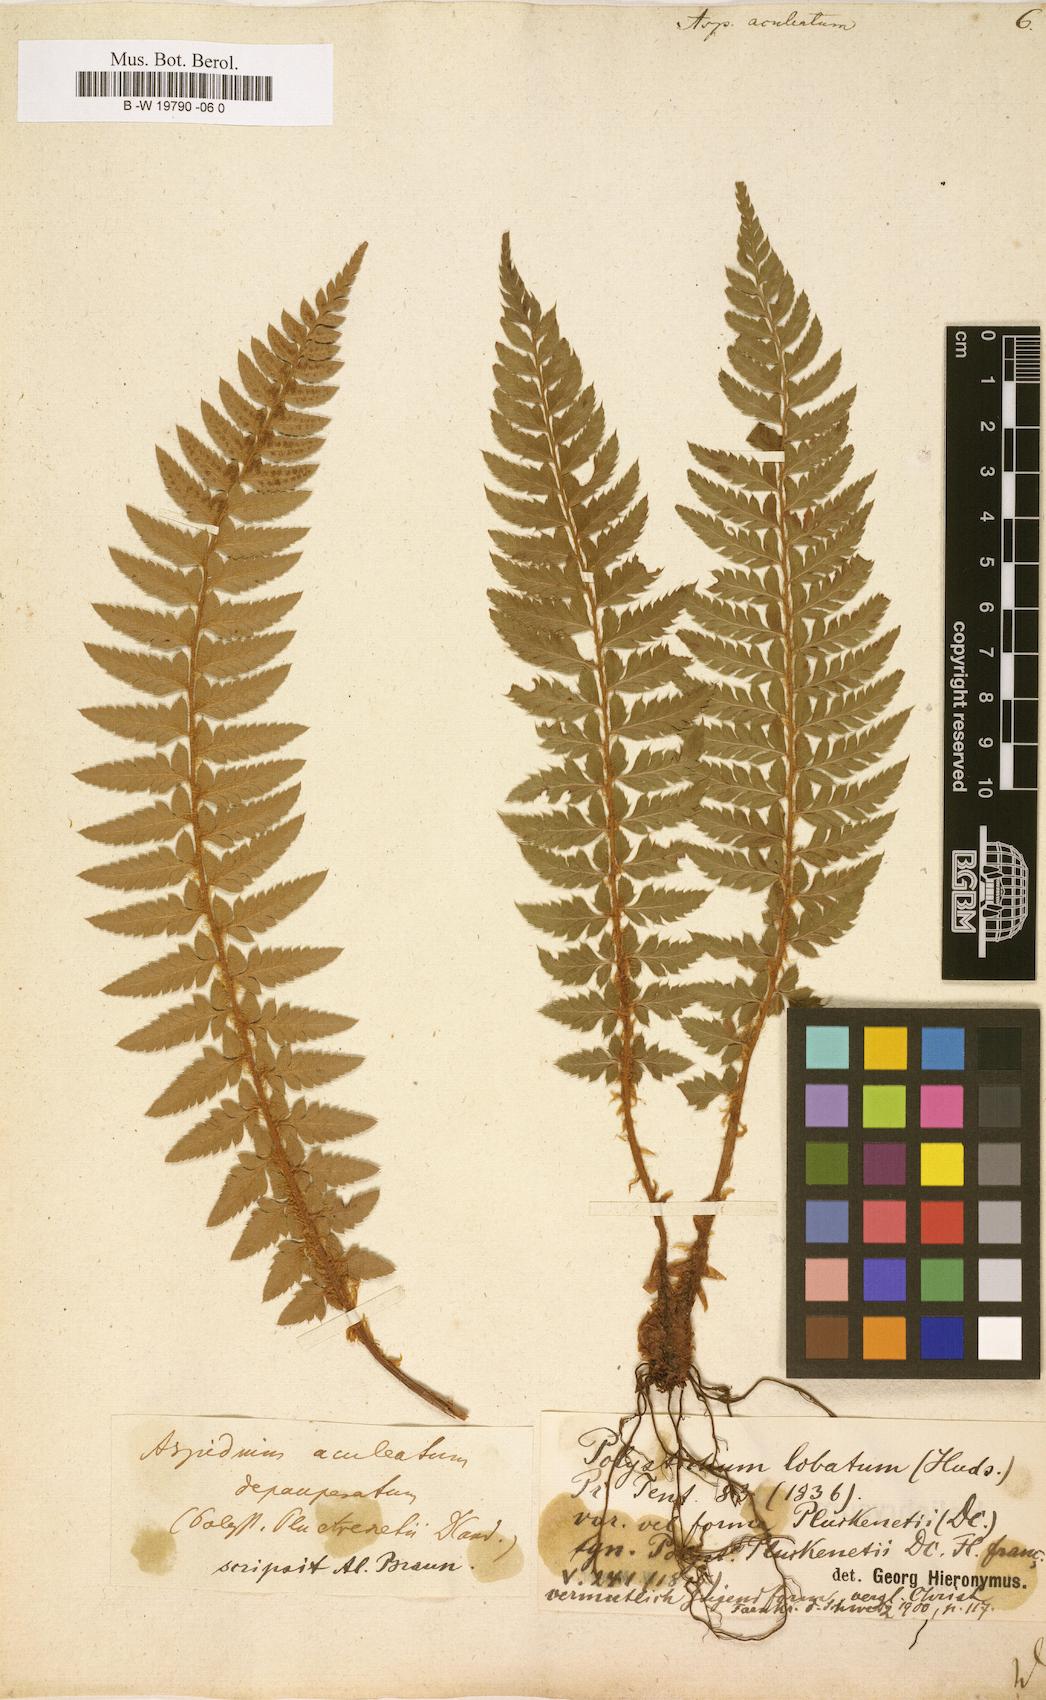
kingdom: Plantae
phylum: Tracheophyta
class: Polypodiopsida
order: Polypodiales
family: Dryopteridaceae
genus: Polystichum
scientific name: Polystichum aculeatum
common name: Hard shield-fern
